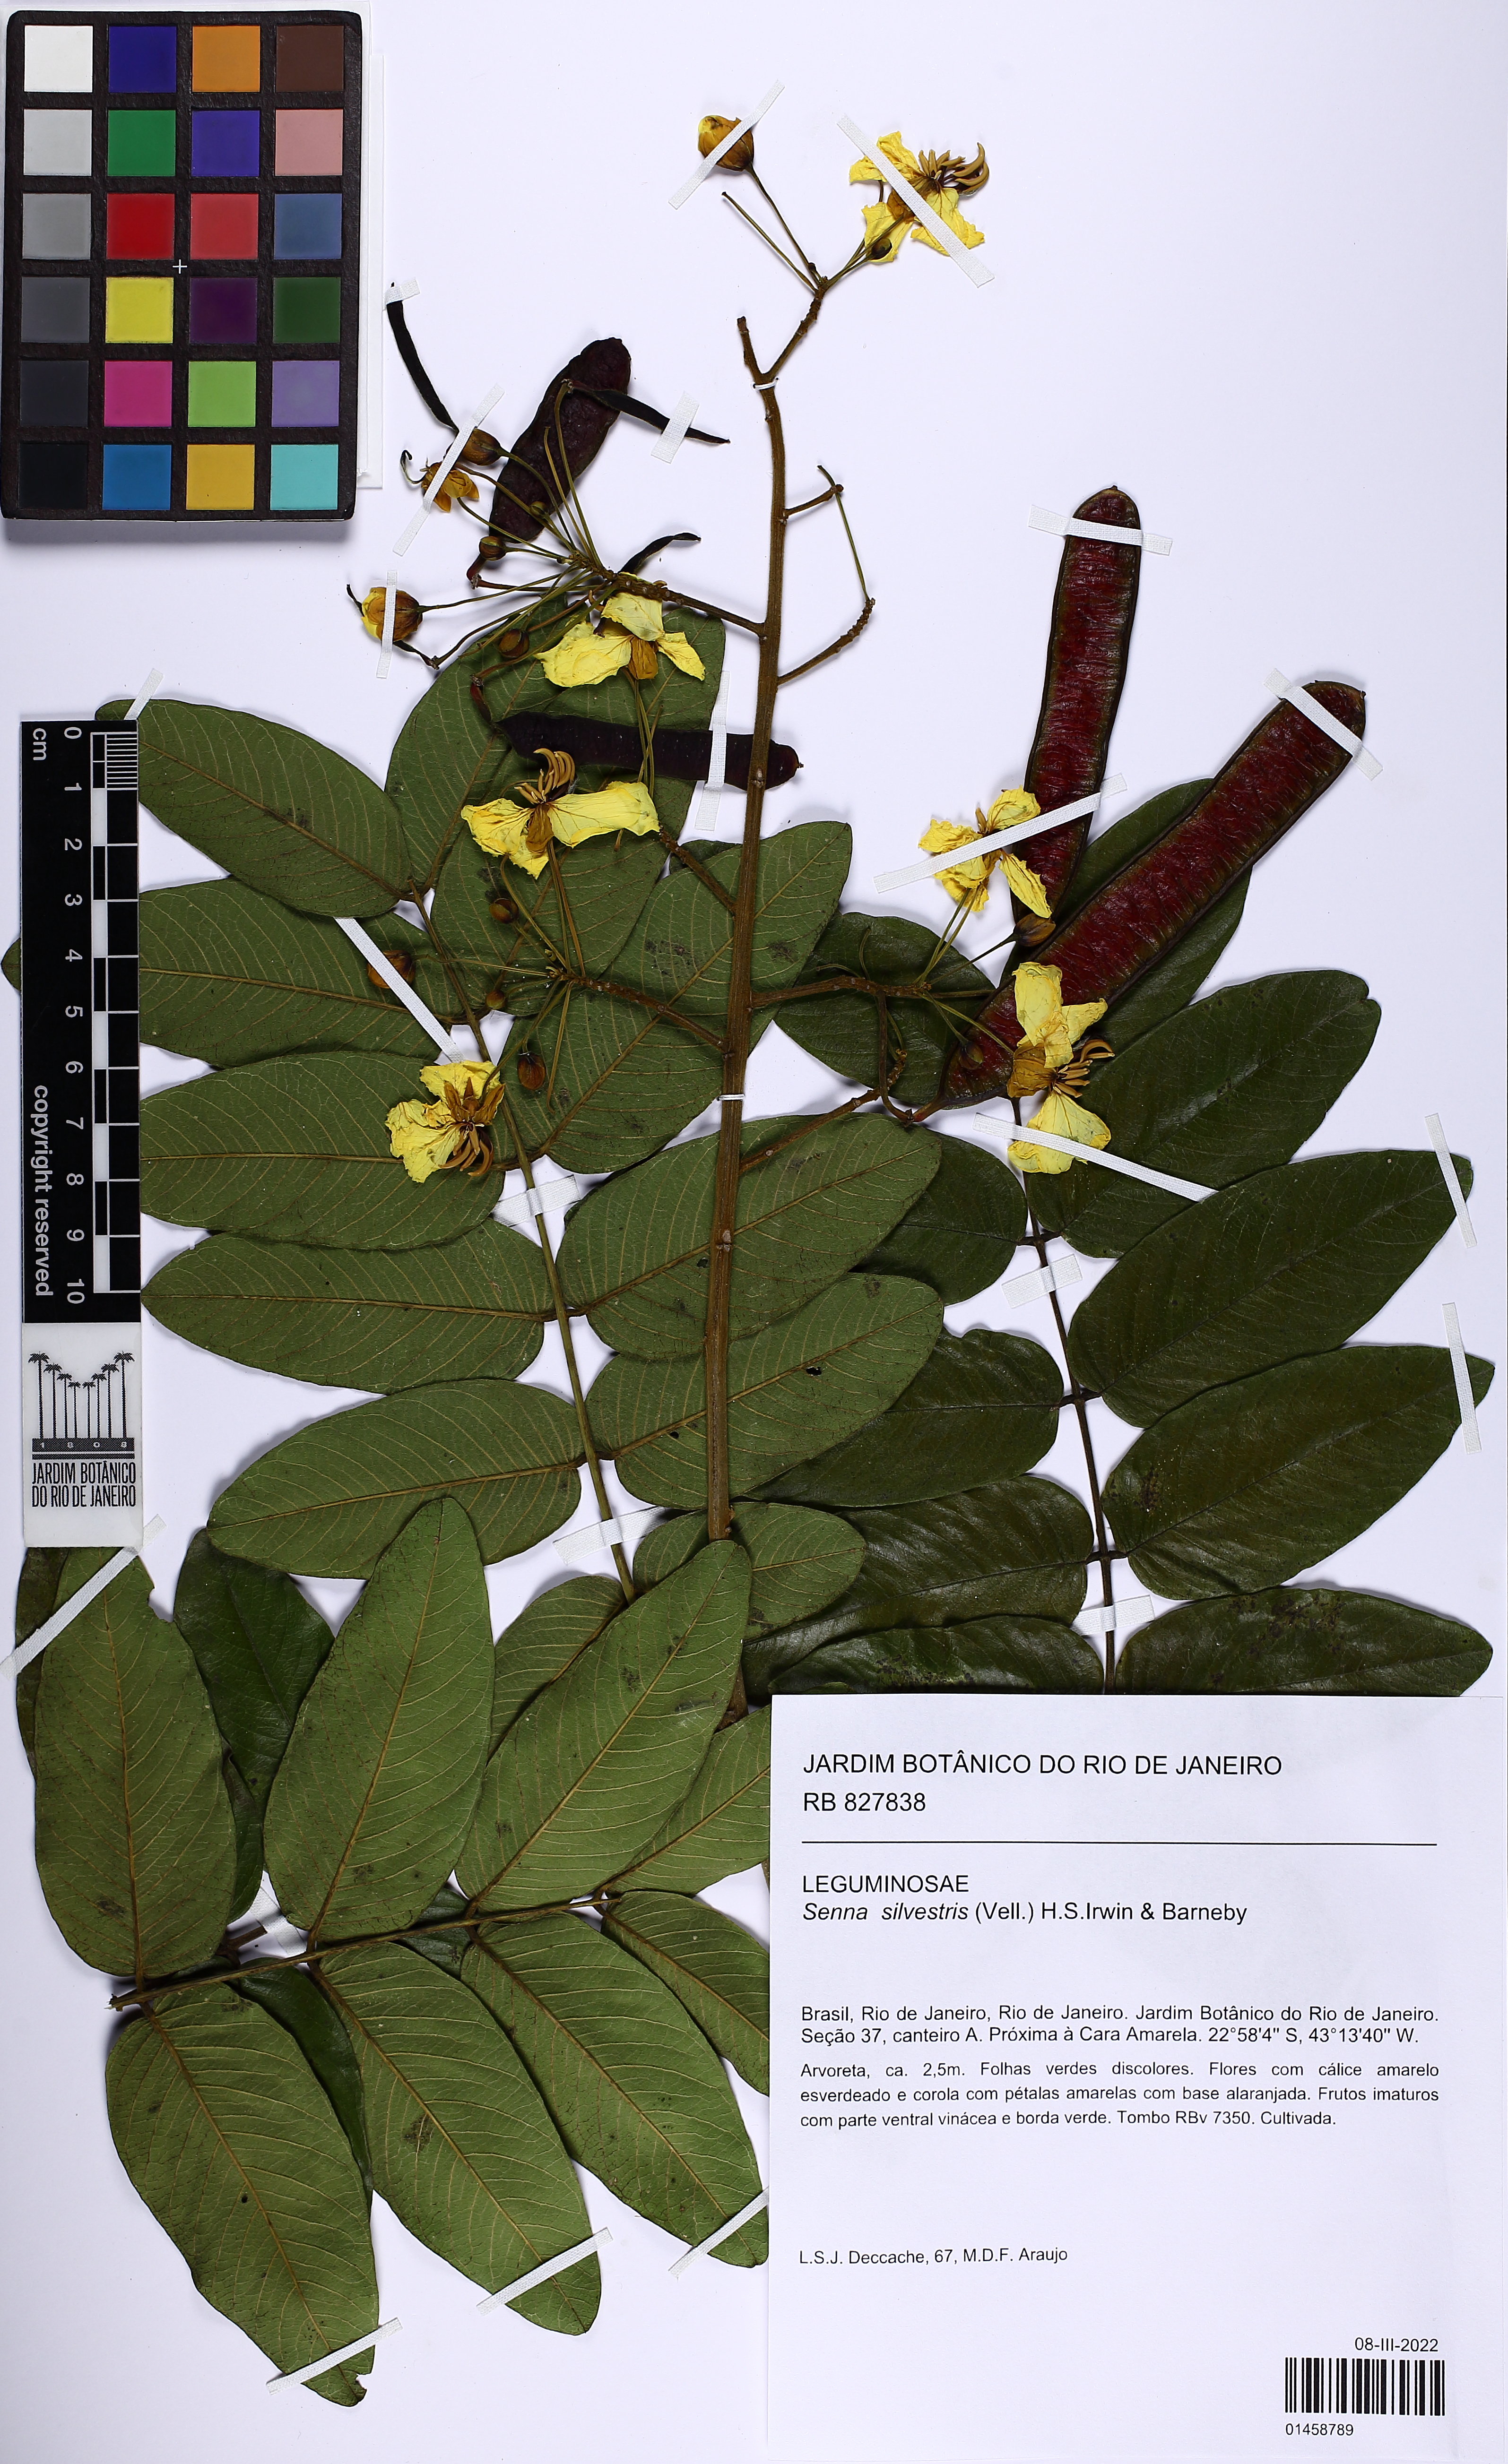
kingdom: Plantae
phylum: Tracheophyta
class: Magnoliopsida
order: Fabales
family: Fabaceae
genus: Senna
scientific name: Senna silvestris
